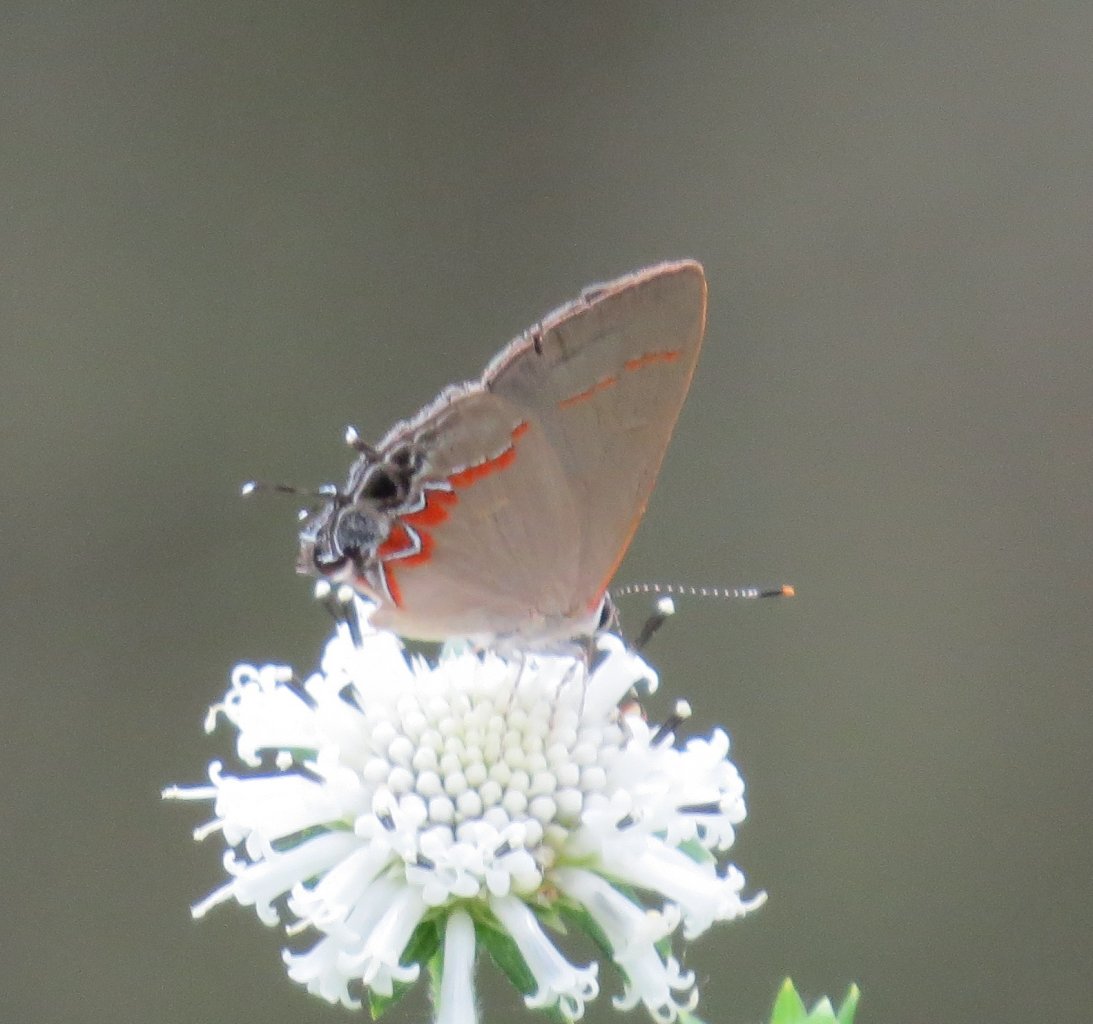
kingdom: Animalia
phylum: Arthropoda
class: Insecta
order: Lepidoptera
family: Lycaenidae
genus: Calycopis
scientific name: Calycopis cecrops
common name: Red-banded Hairstreak
